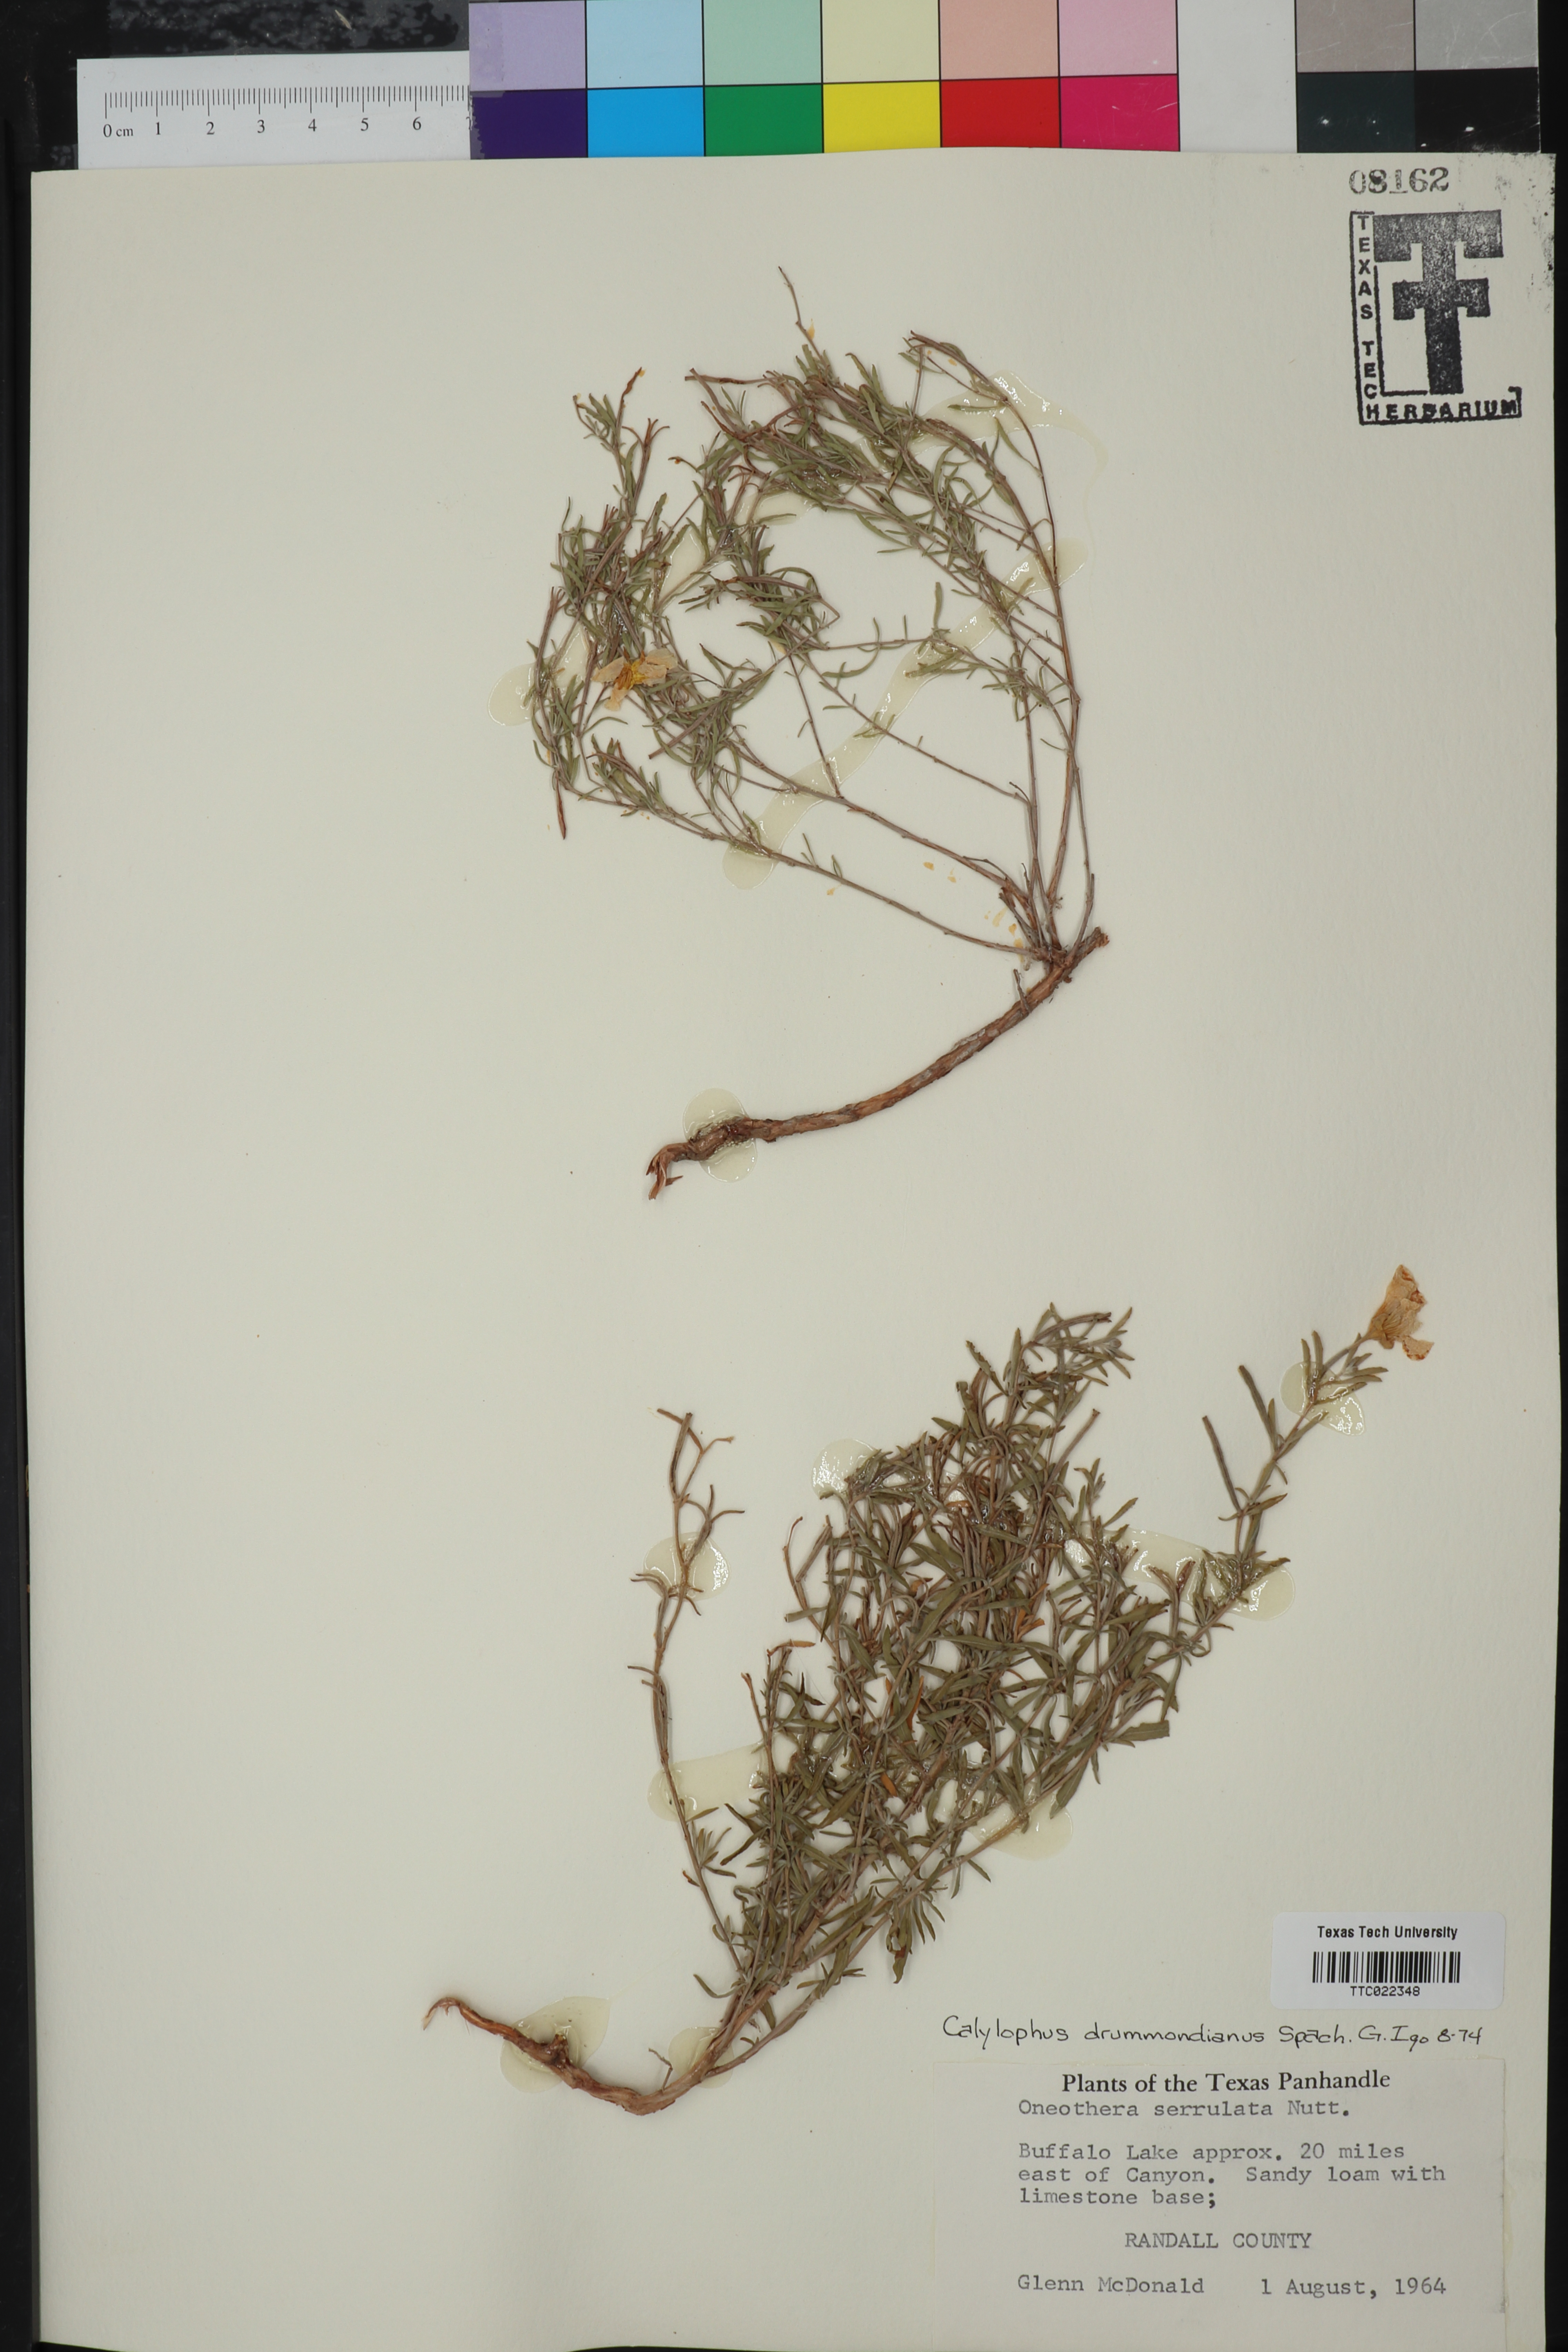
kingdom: Plantae
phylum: Tracheophyta
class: Magnoliopsida
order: Myrtales
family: Onagraceae
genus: Oenothera
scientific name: Oenothera serrulata
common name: Half-shrub calylophus
